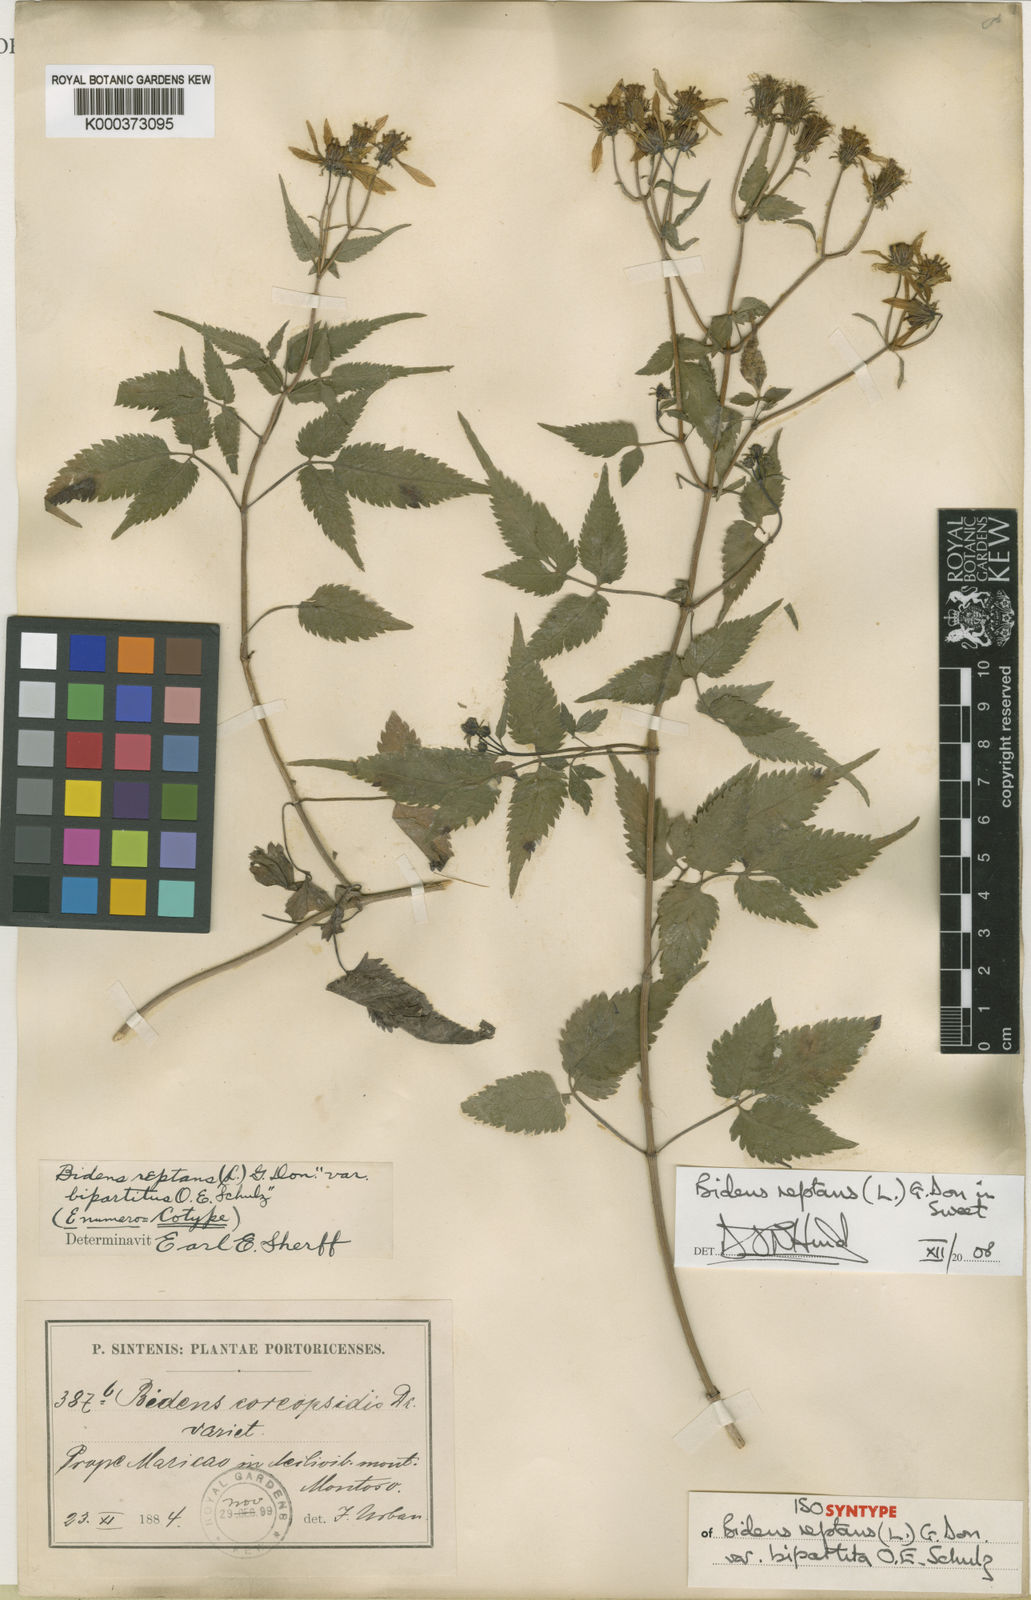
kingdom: Plantae
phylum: Tracheophyta
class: Magnoliopsida
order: Asterales
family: Asteraceae
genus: Bidens
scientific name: Bidens reptans
